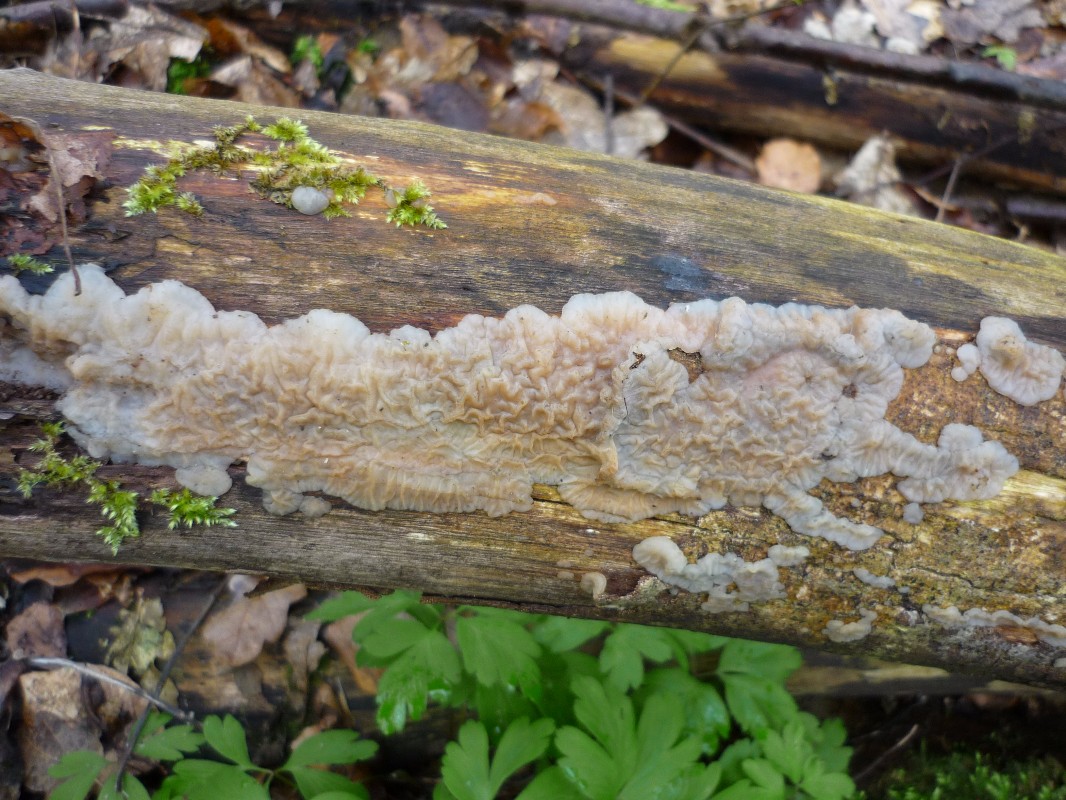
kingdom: Fungi
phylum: Basidiomycota
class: Agaricomycetes
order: Auriculariales
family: Auriculariaceae
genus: Exidia
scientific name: Exidia thuretiana
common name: hvidlig bævretop
